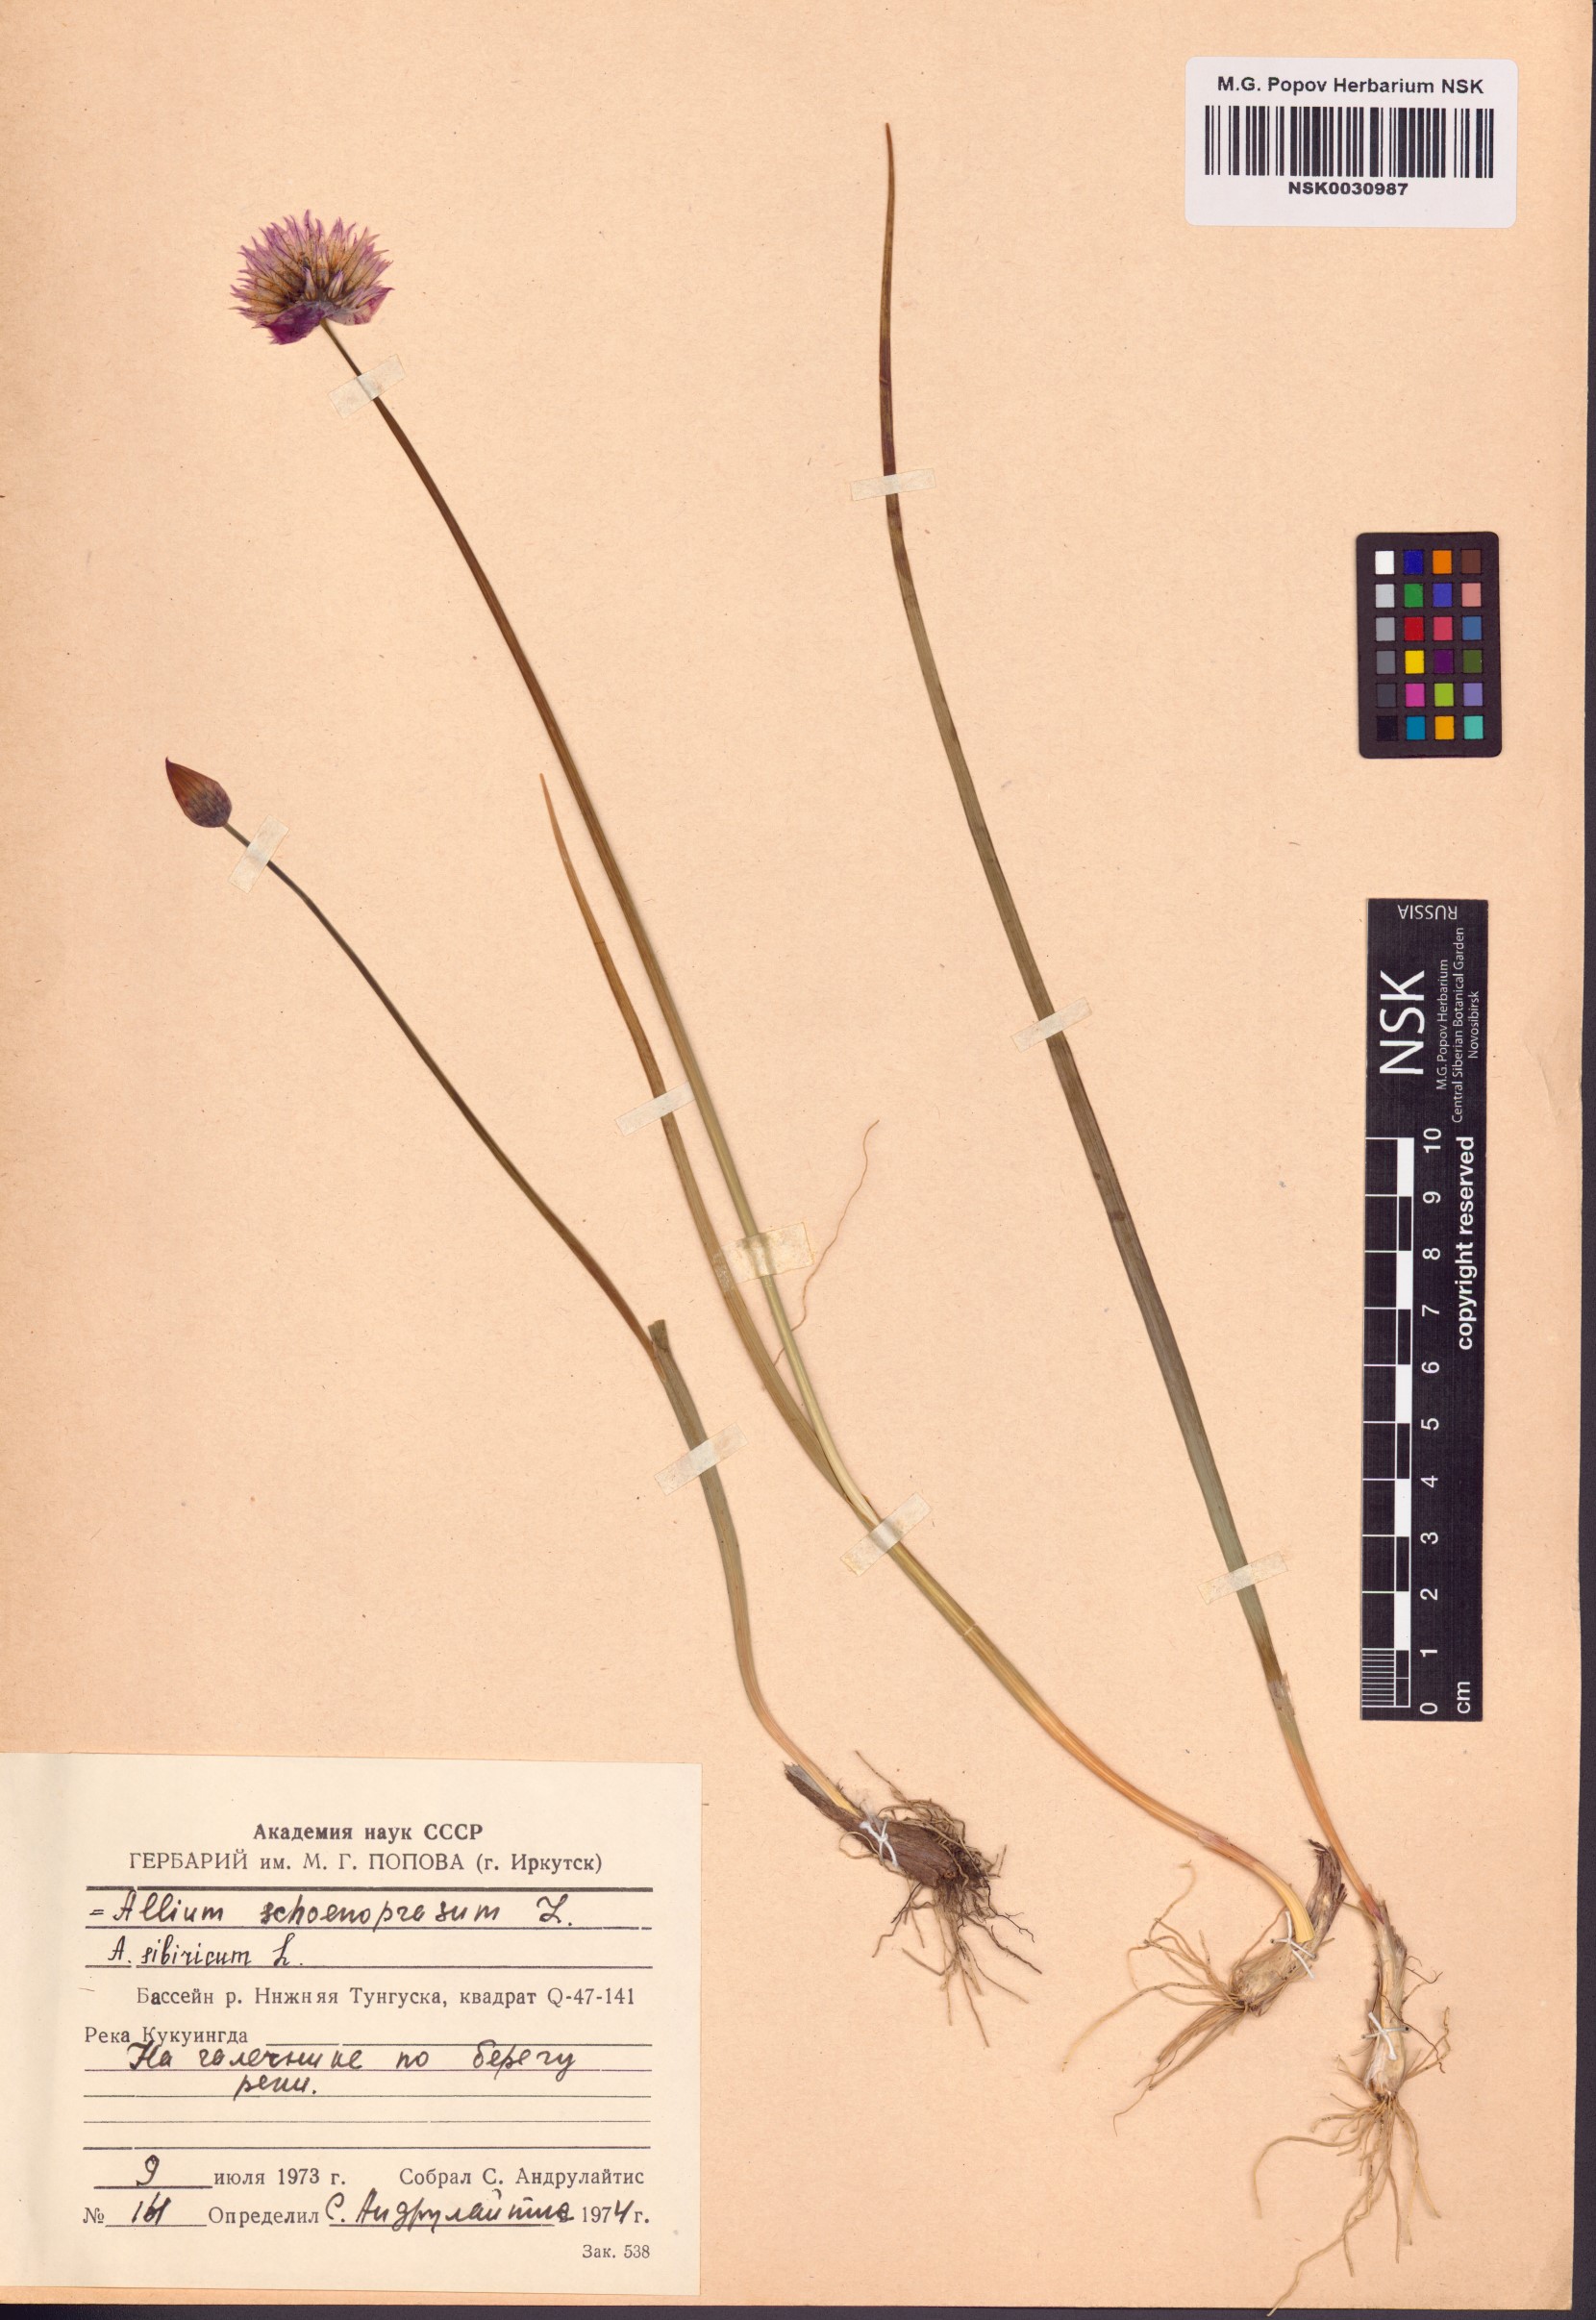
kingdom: Plantae
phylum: Tracheophyta
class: Liliopsida
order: Asparagales
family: Amaryllidaceae
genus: Allium
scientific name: Allium schoenoprasum
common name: Chives
